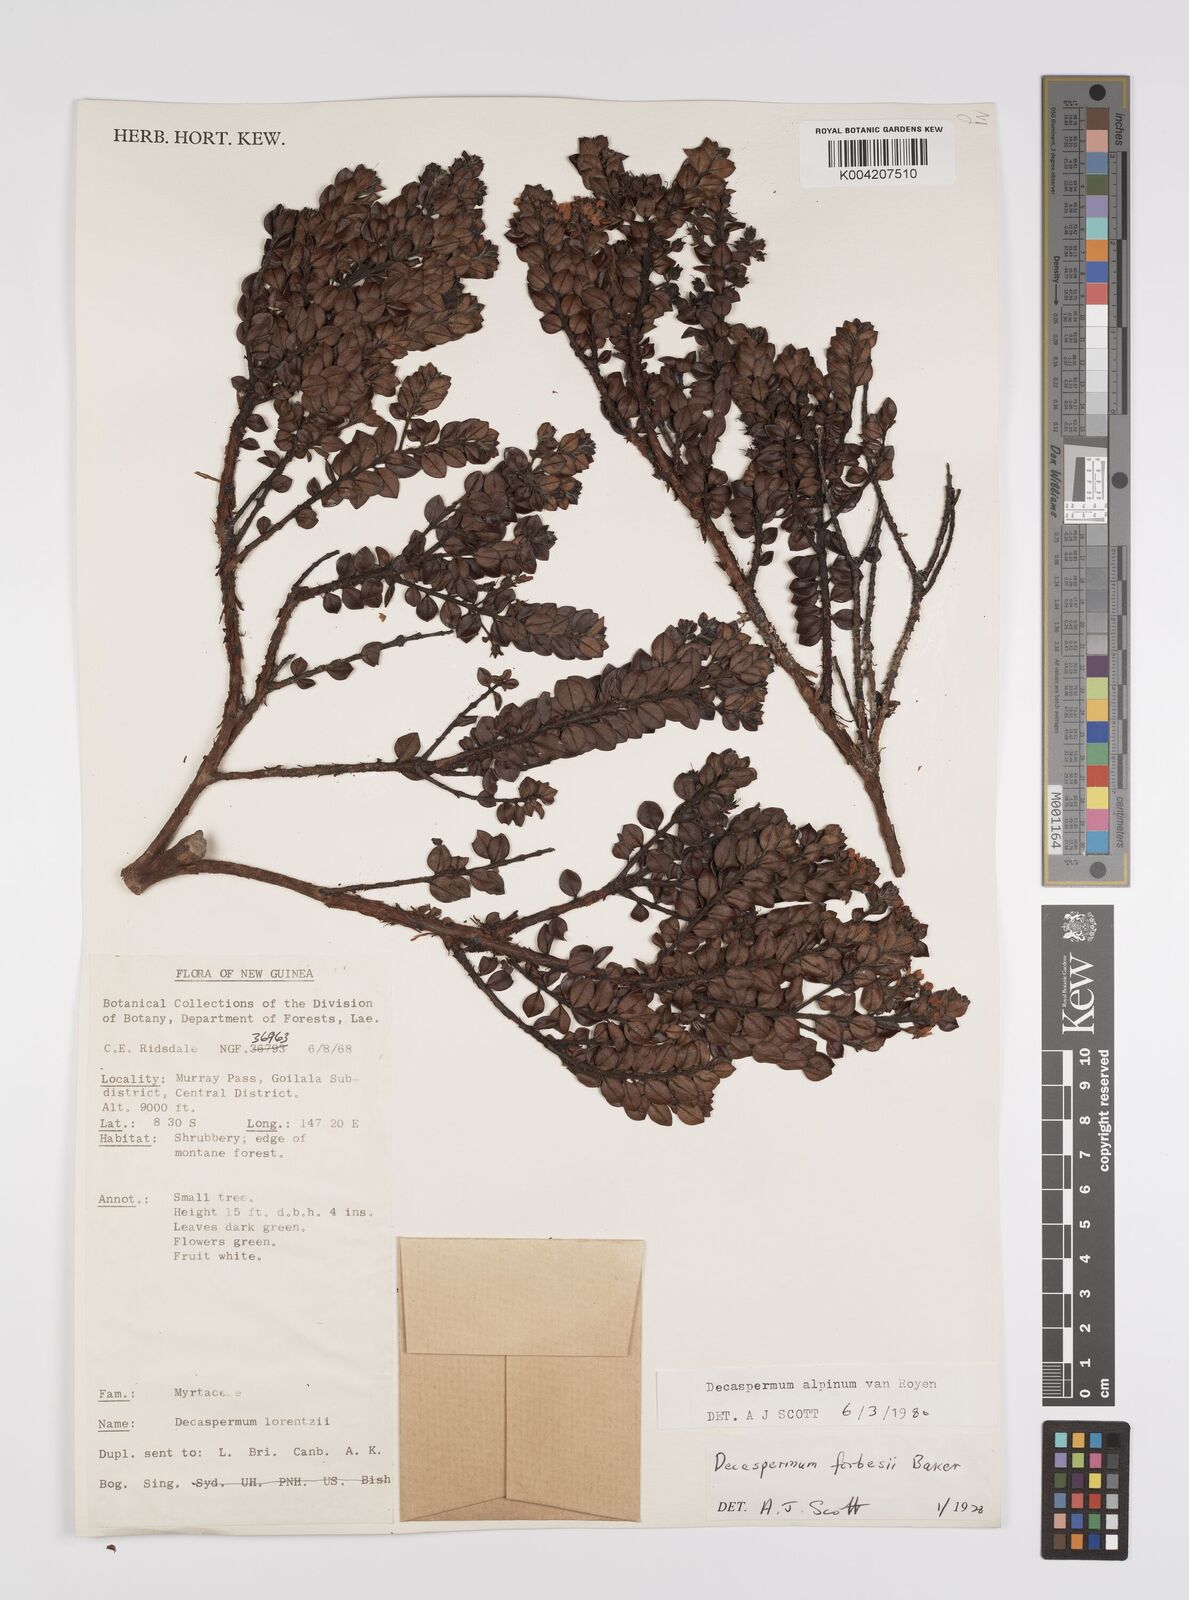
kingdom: Plantae
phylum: Tracheophyta
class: Magnoliopsida
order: Myrtales
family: Myrtaceae
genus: Decaspermum
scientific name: Decaspermum alpinum
